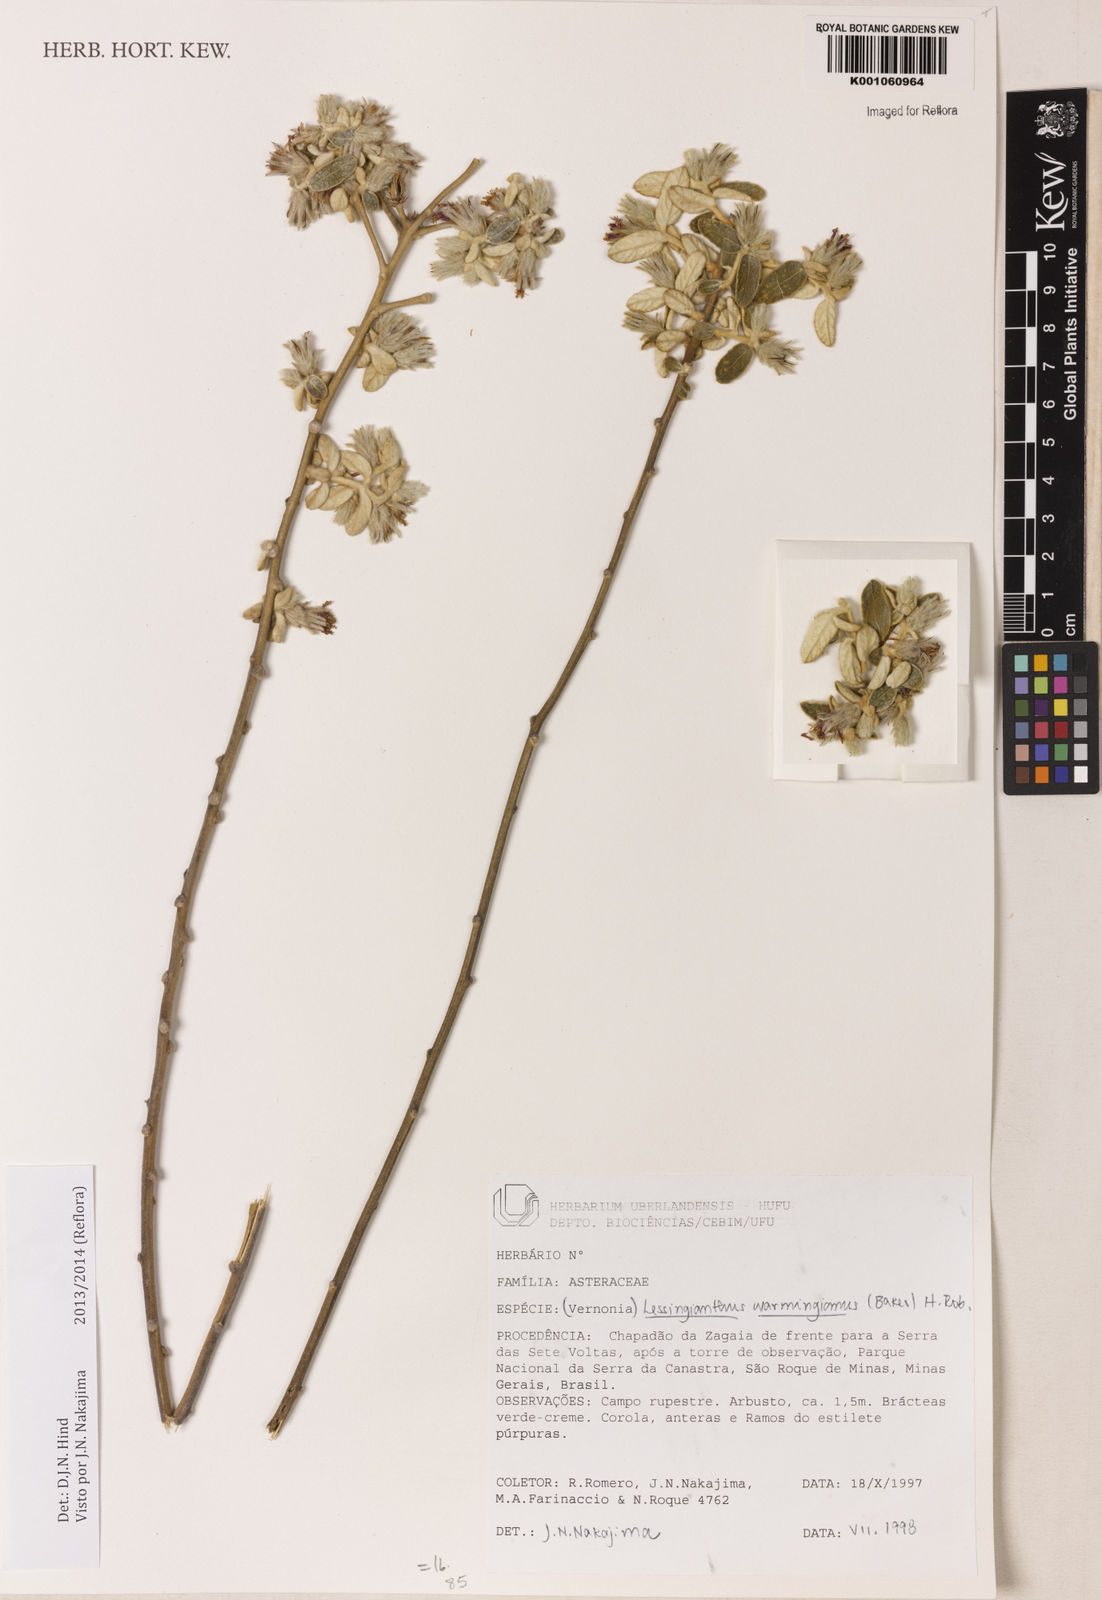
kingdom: Plantae
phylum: Tracheophyta
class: Magnoliopsida
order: Asterales
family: Asteraceae
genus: Lessingianthus
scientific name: Lessingianthus warmingianus
